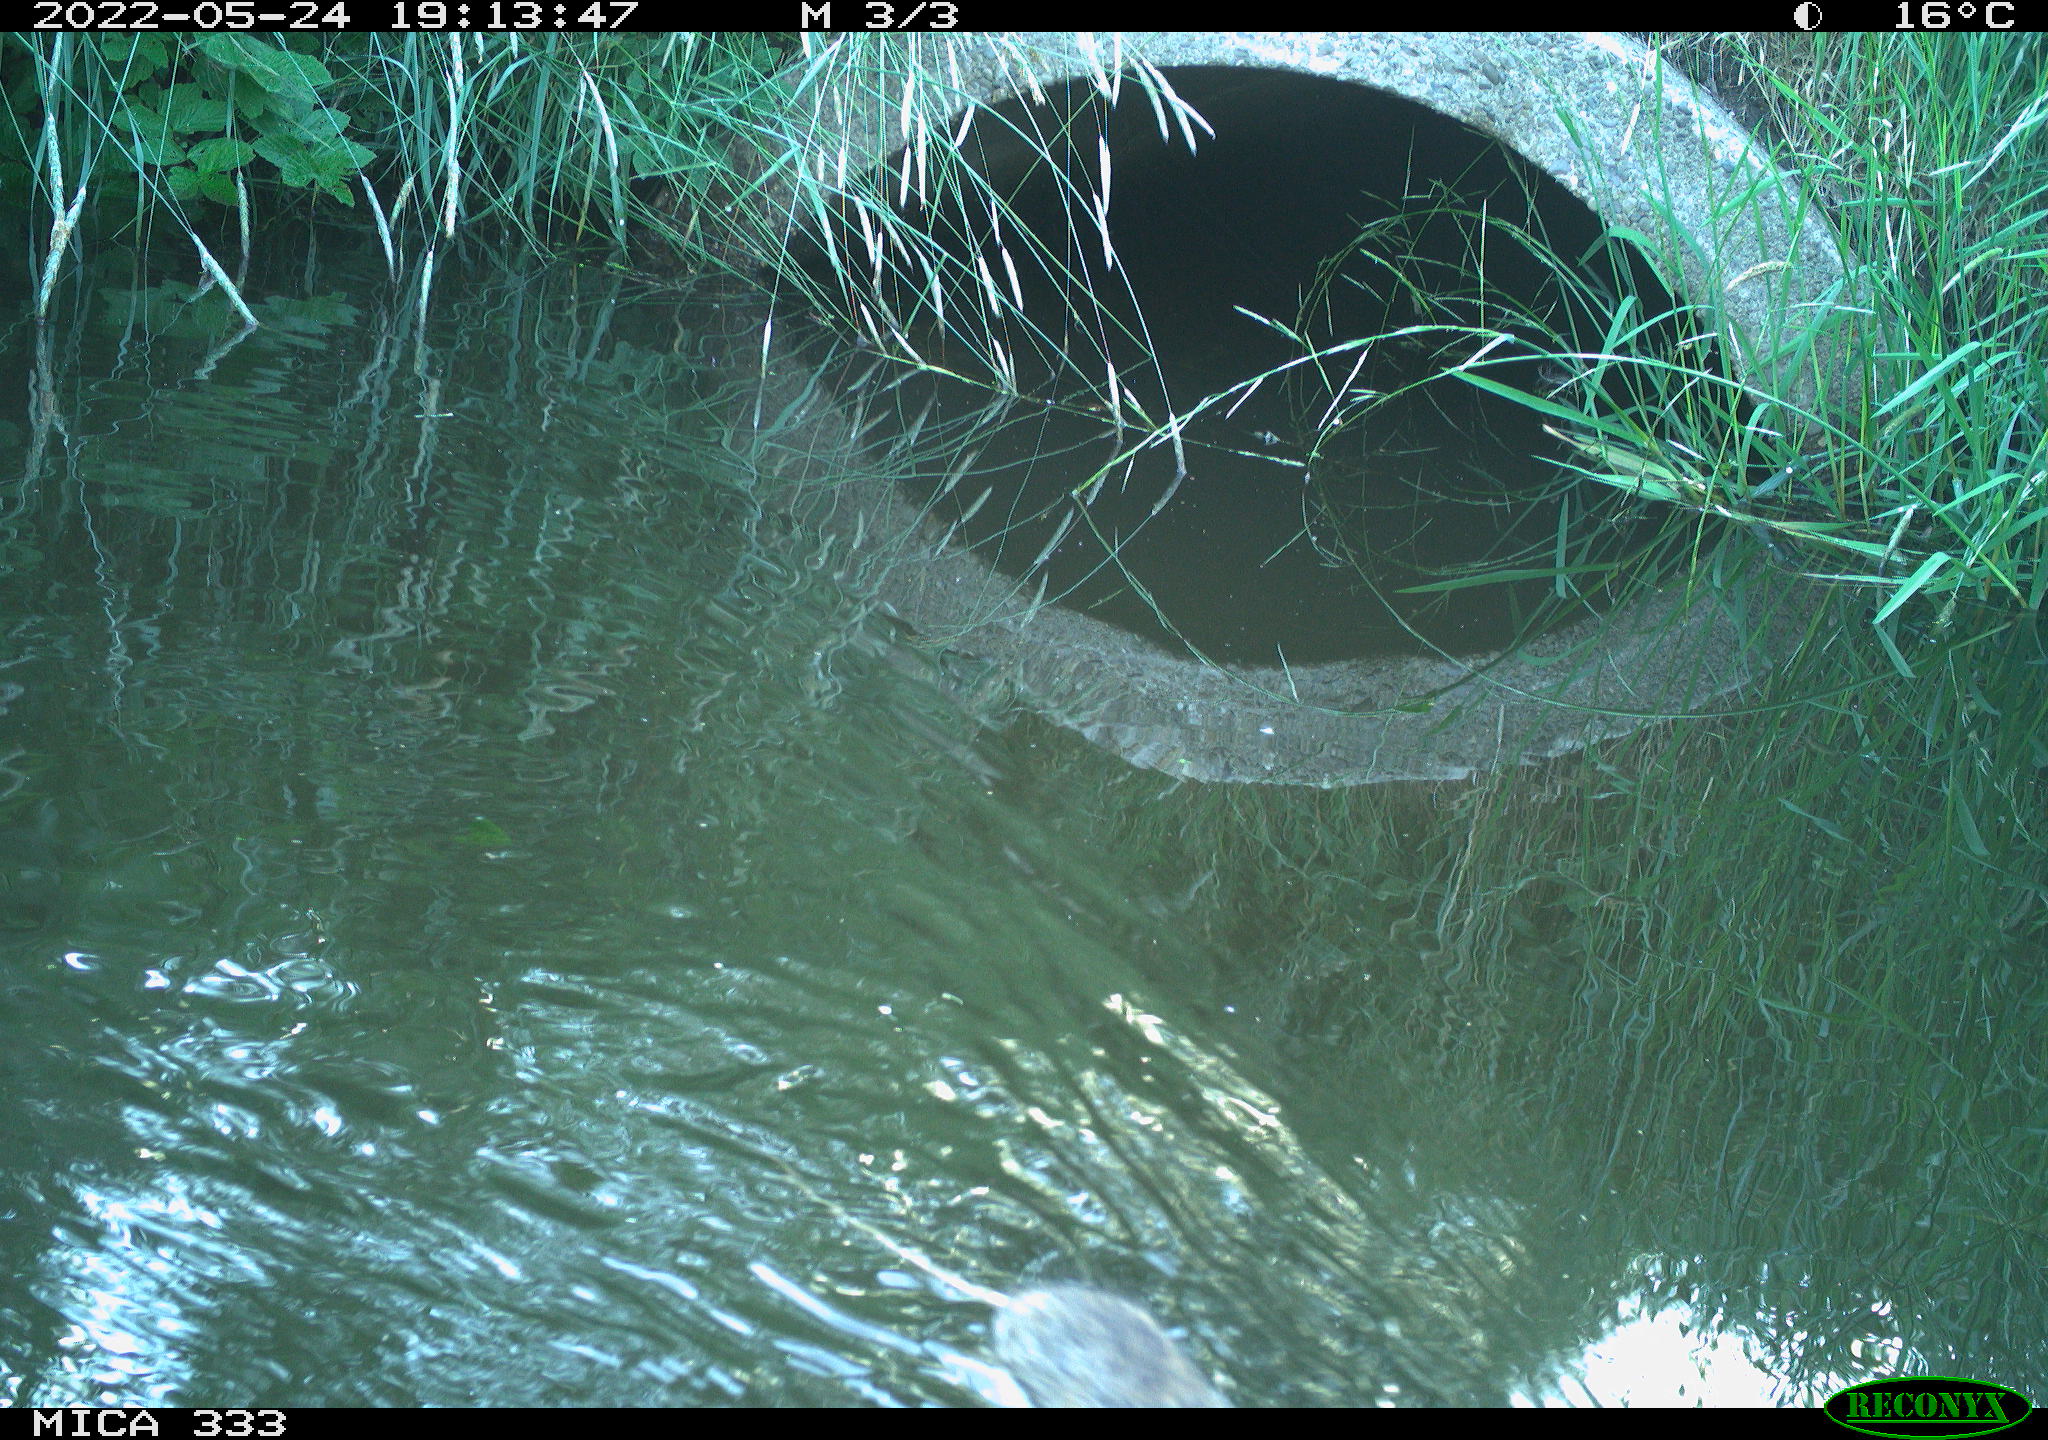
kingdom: Animalia
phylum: Chordata
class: Mammalia
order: Rodentia
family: Muridae
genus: Rattus
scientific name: Rattus norvegicus
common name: Brown rat
